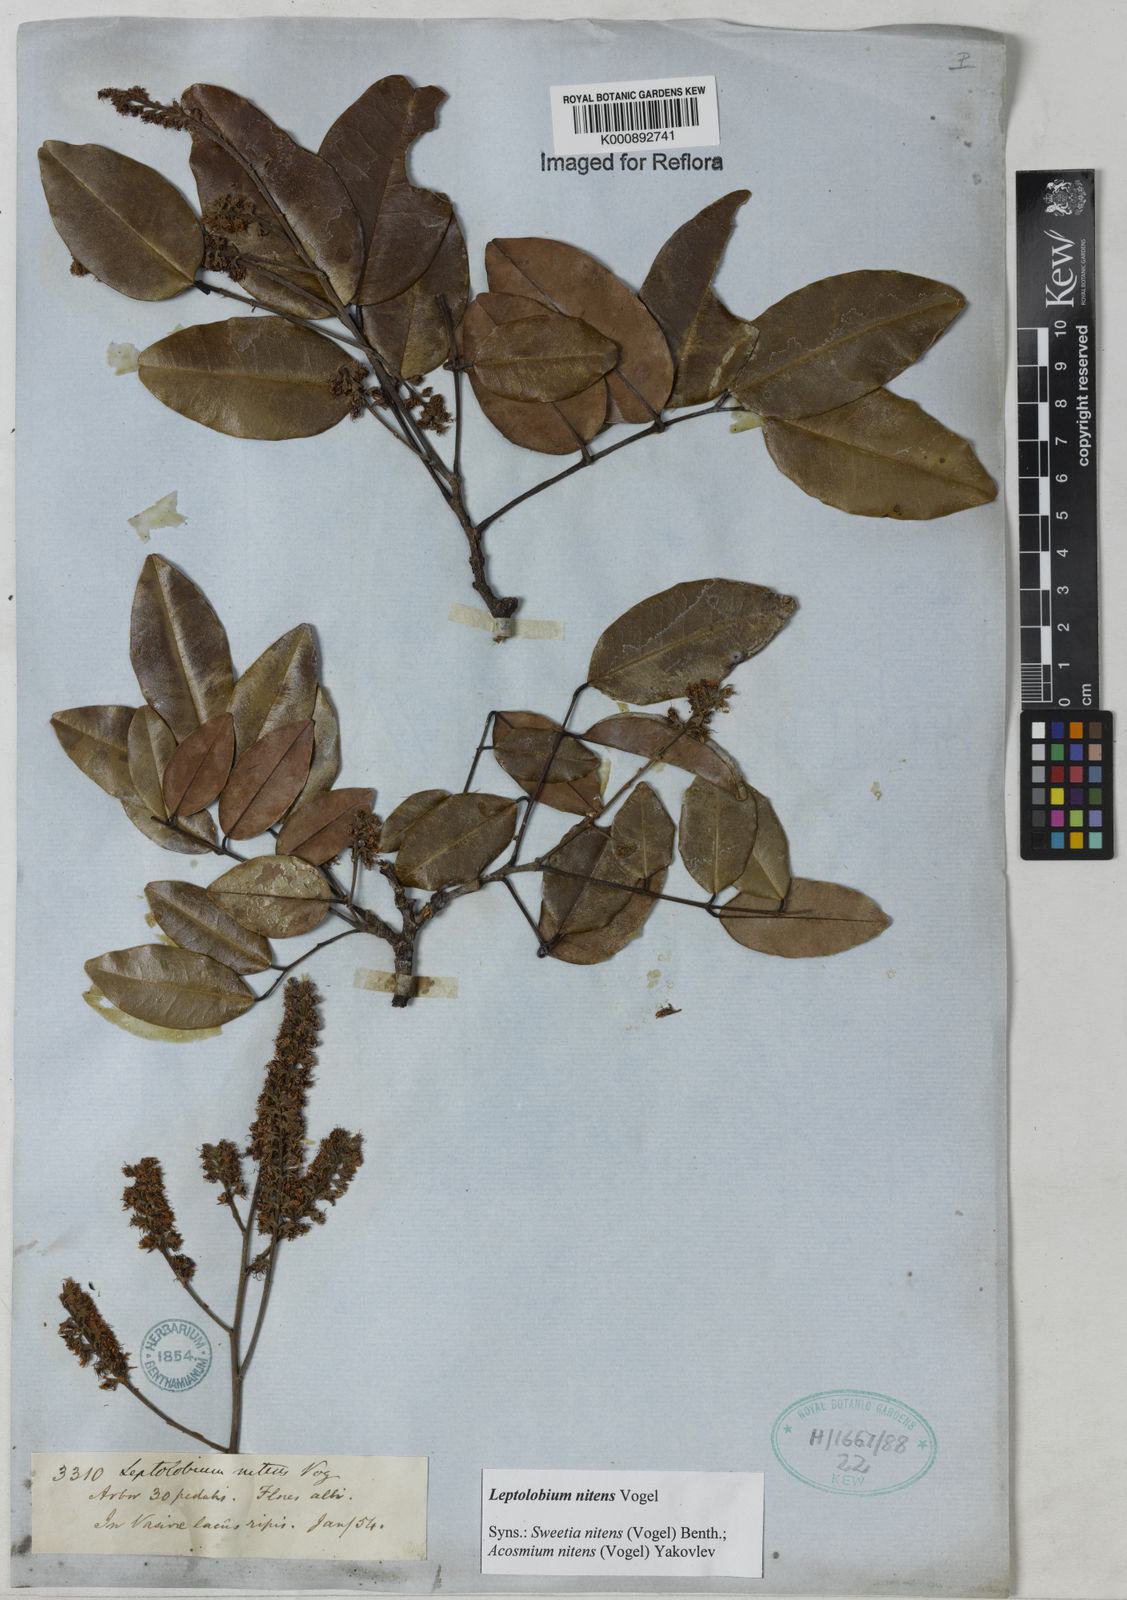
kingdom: Plantae
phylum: Tracheophyta
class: Magnoliopsida
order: Fabales
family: Fabaceae
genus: Leptolobium
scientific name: Leptolobium nitens
